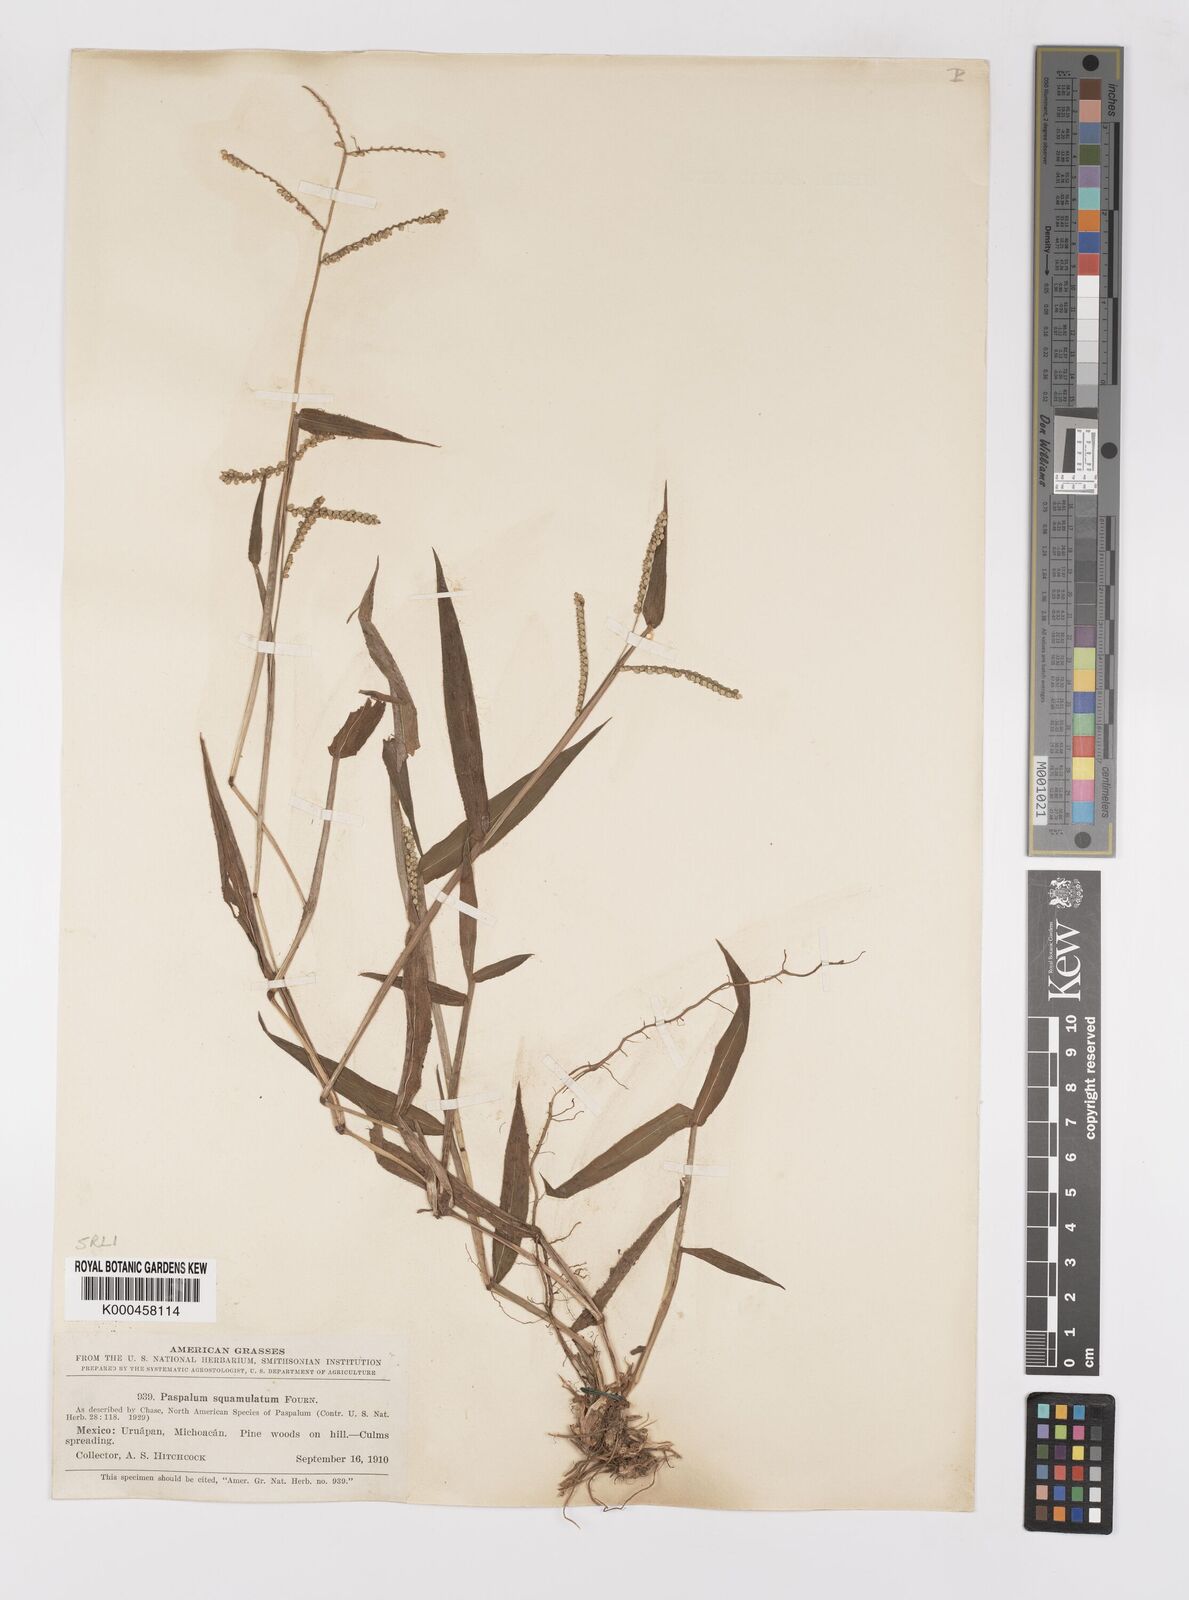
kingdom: Plantae
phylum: Tracheophyta
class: Liliopsida
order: Poales
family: Poaceae
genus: Paspalum
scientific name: Paspalum
